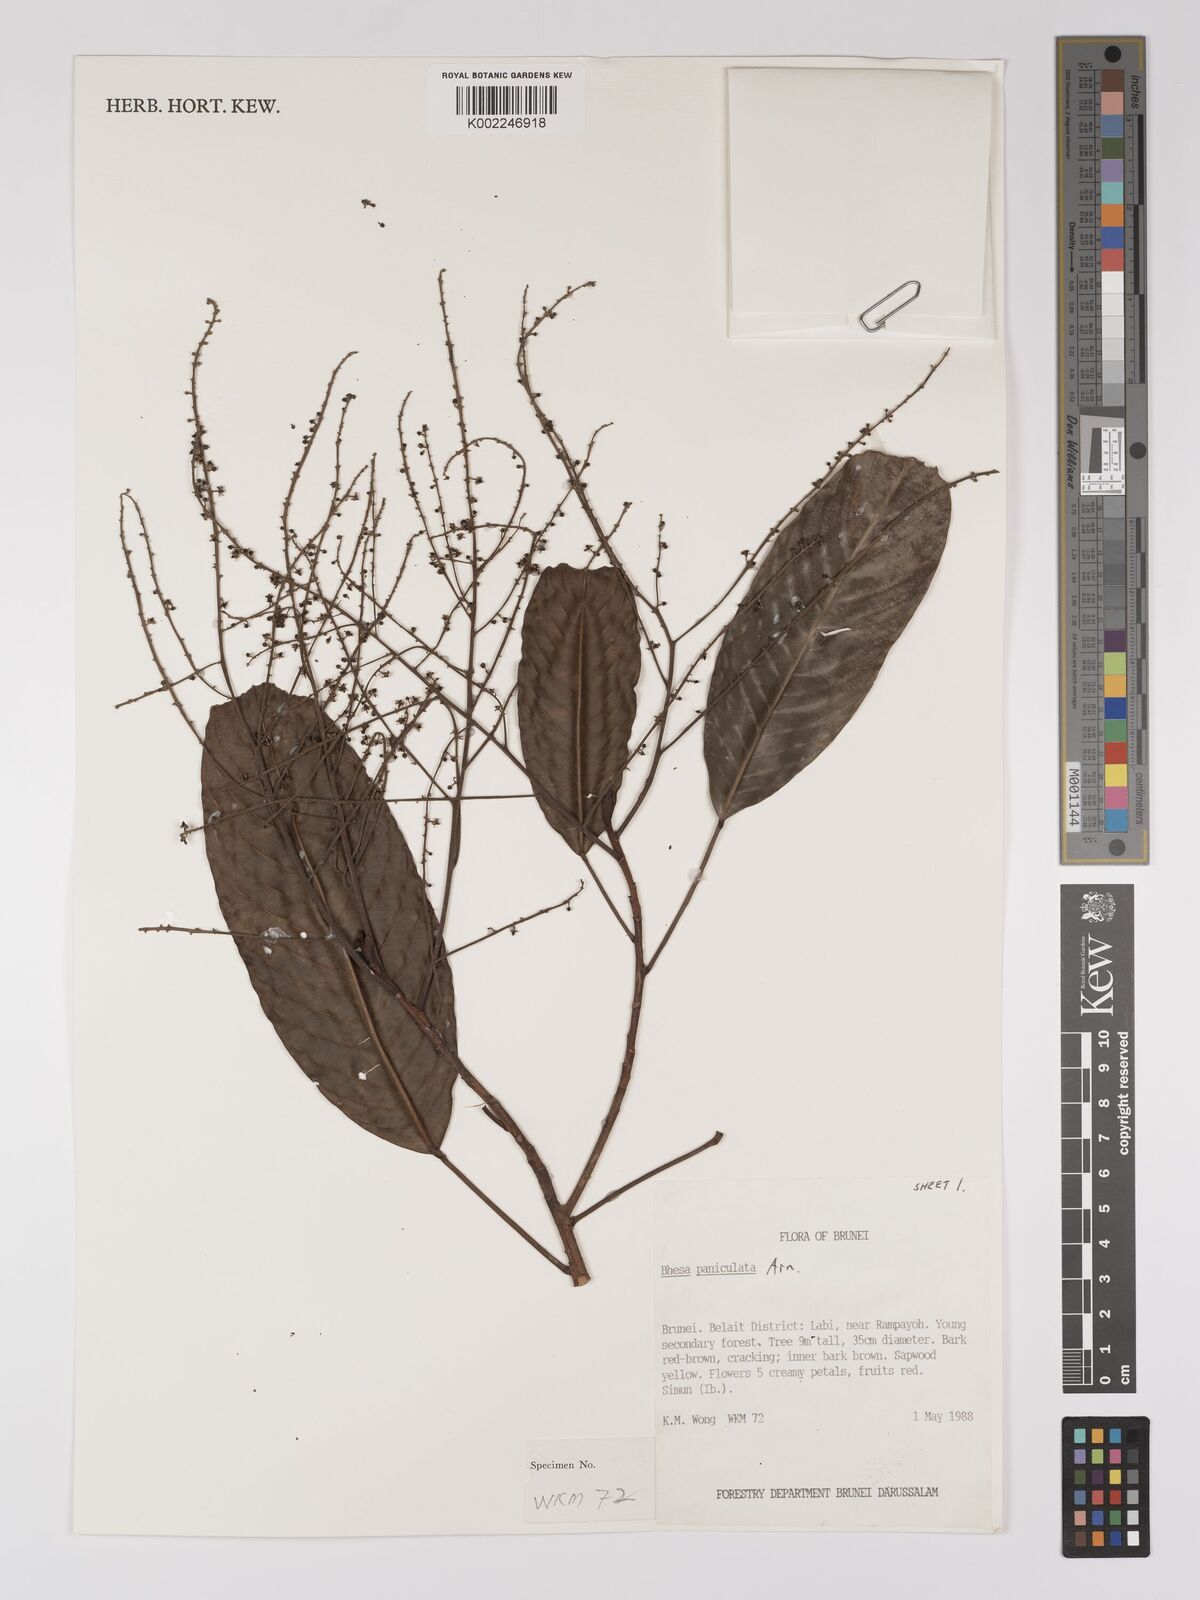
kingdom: Plantae
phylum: Tracheophyta
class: Magnoliopsida
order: Malpighiales
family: Centroplacaceae
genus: Bhesa
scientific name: Bhesa paniculata
